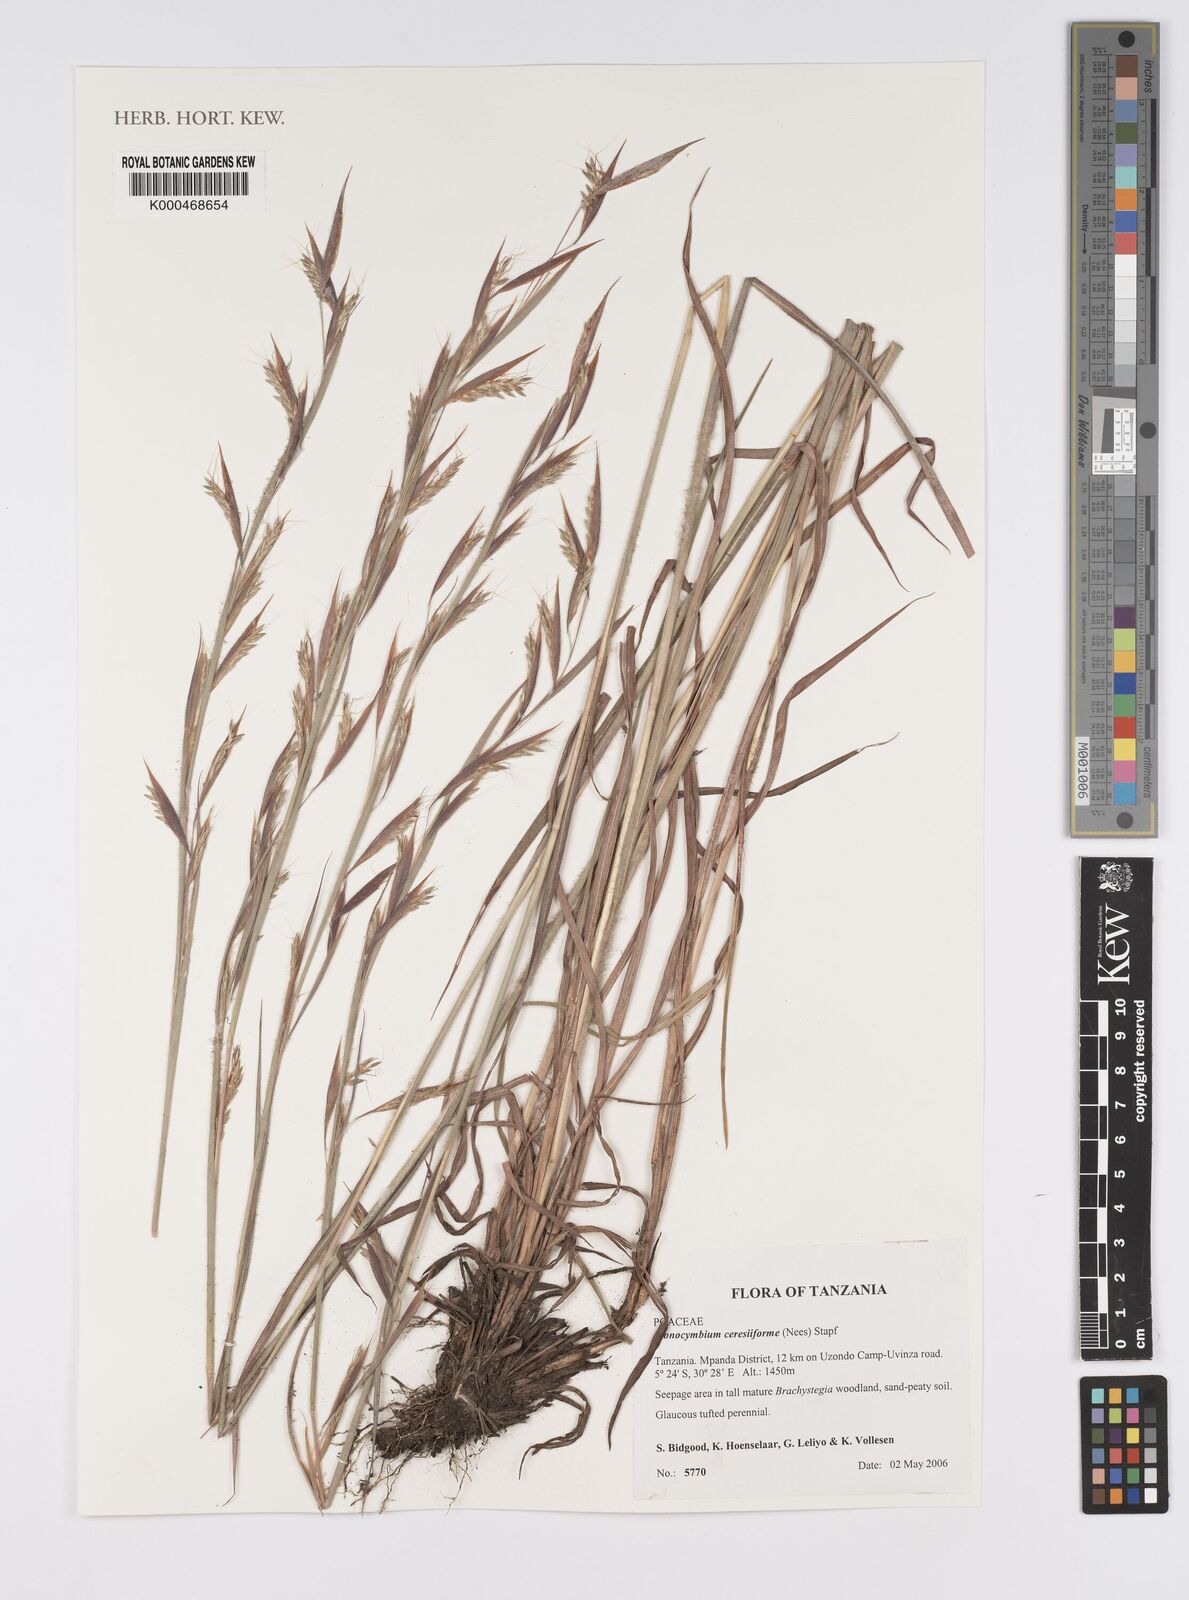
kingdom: Plantae
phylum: Tracheophyta
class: Liliopsida
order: Poales
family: Poaceae
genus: Monocymbium
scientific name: Monocymbium ceresiiforme
